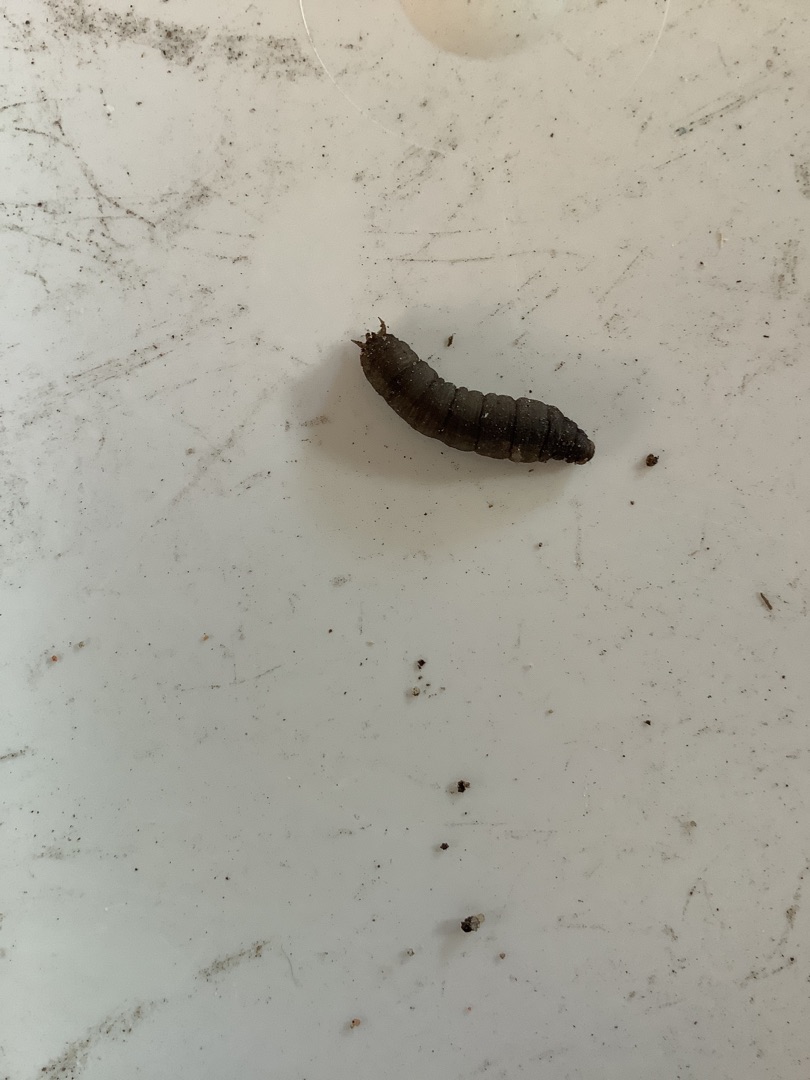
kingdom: Animalia
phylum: Arthropoda
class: Insecta
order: Diptera
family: Tipulidae
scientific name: Tipulidae
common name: Stankelben
